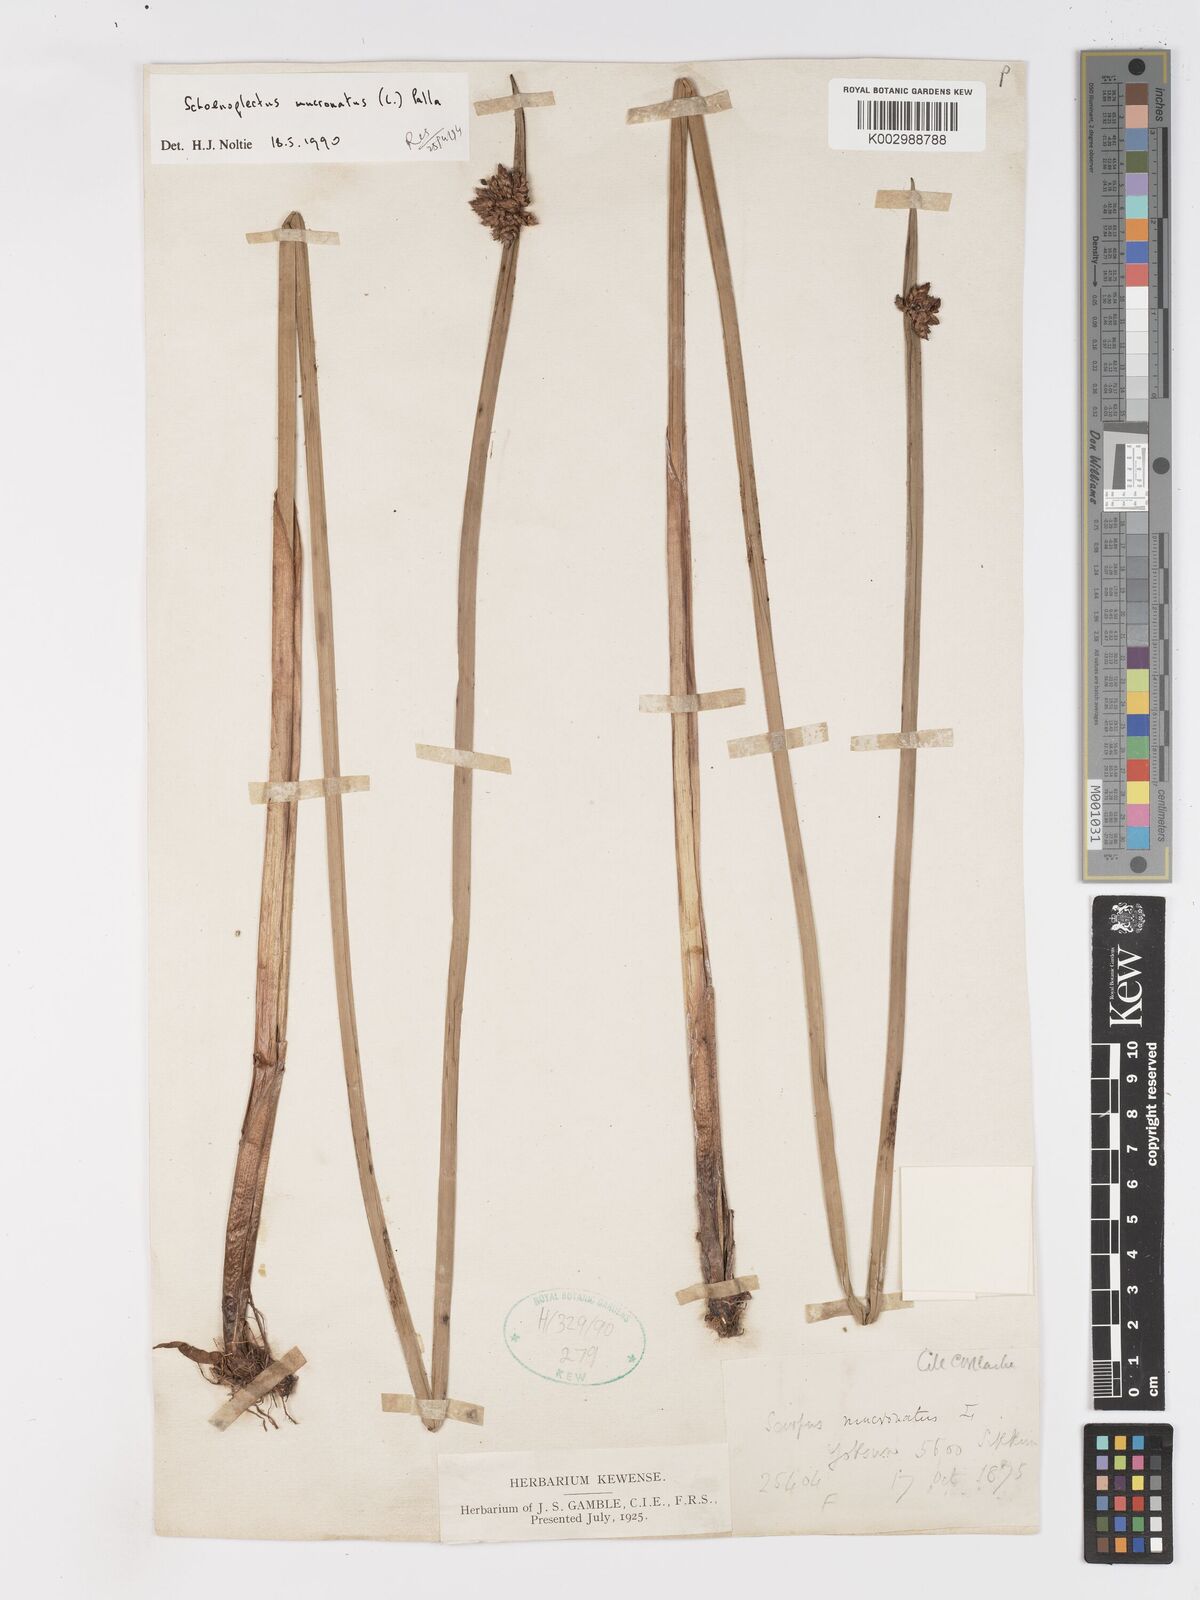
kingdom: Plantae
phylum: Tracheophyta
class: Liliopsida
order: Poales
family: Cyperaceae
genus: Schoenoplectiella
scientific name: Schoenoplectiella mucronata
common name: Bog bulrush
